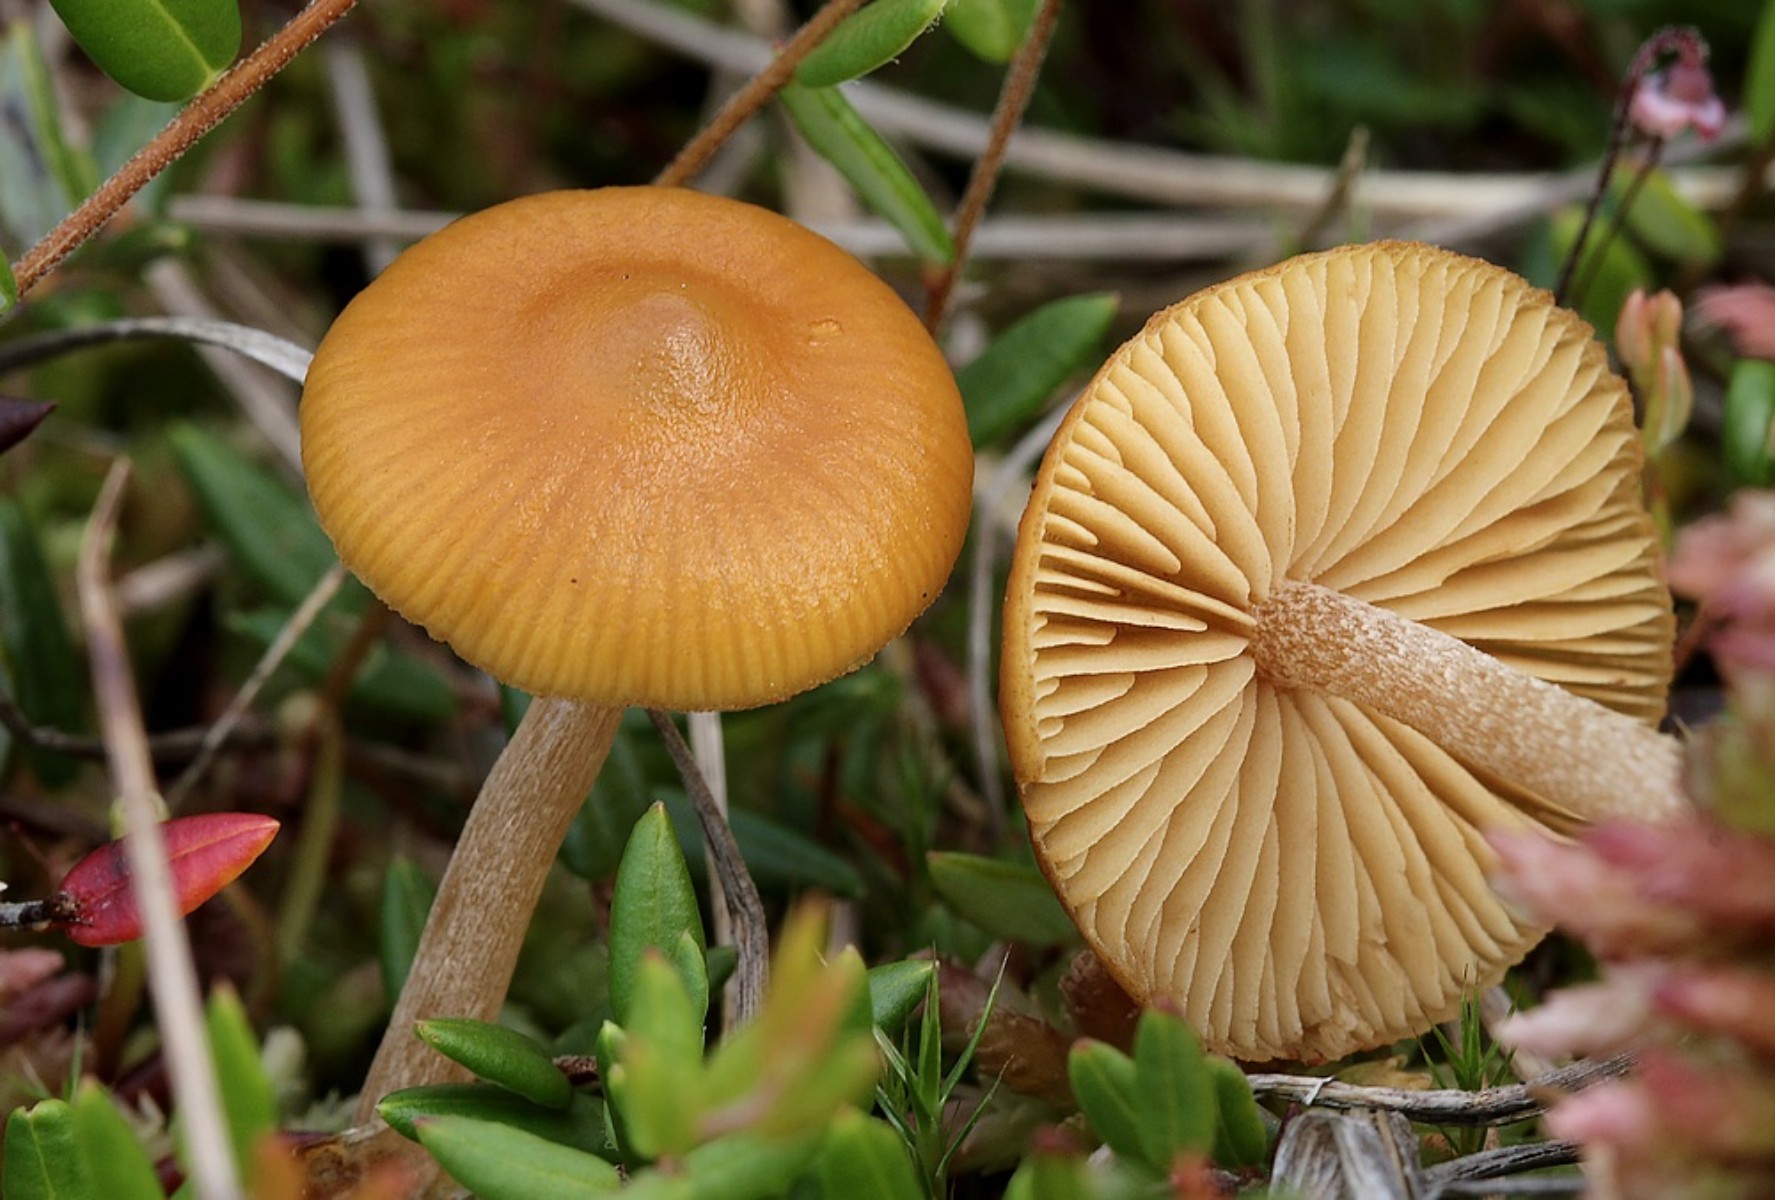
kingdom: Fungi
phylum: Basidiomycota
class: Agaricomycetes
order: Agaricales
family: Hymenogastraceae
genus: Galerina
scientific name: Galerina hybrida
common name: hængesæk-hjelmhat
